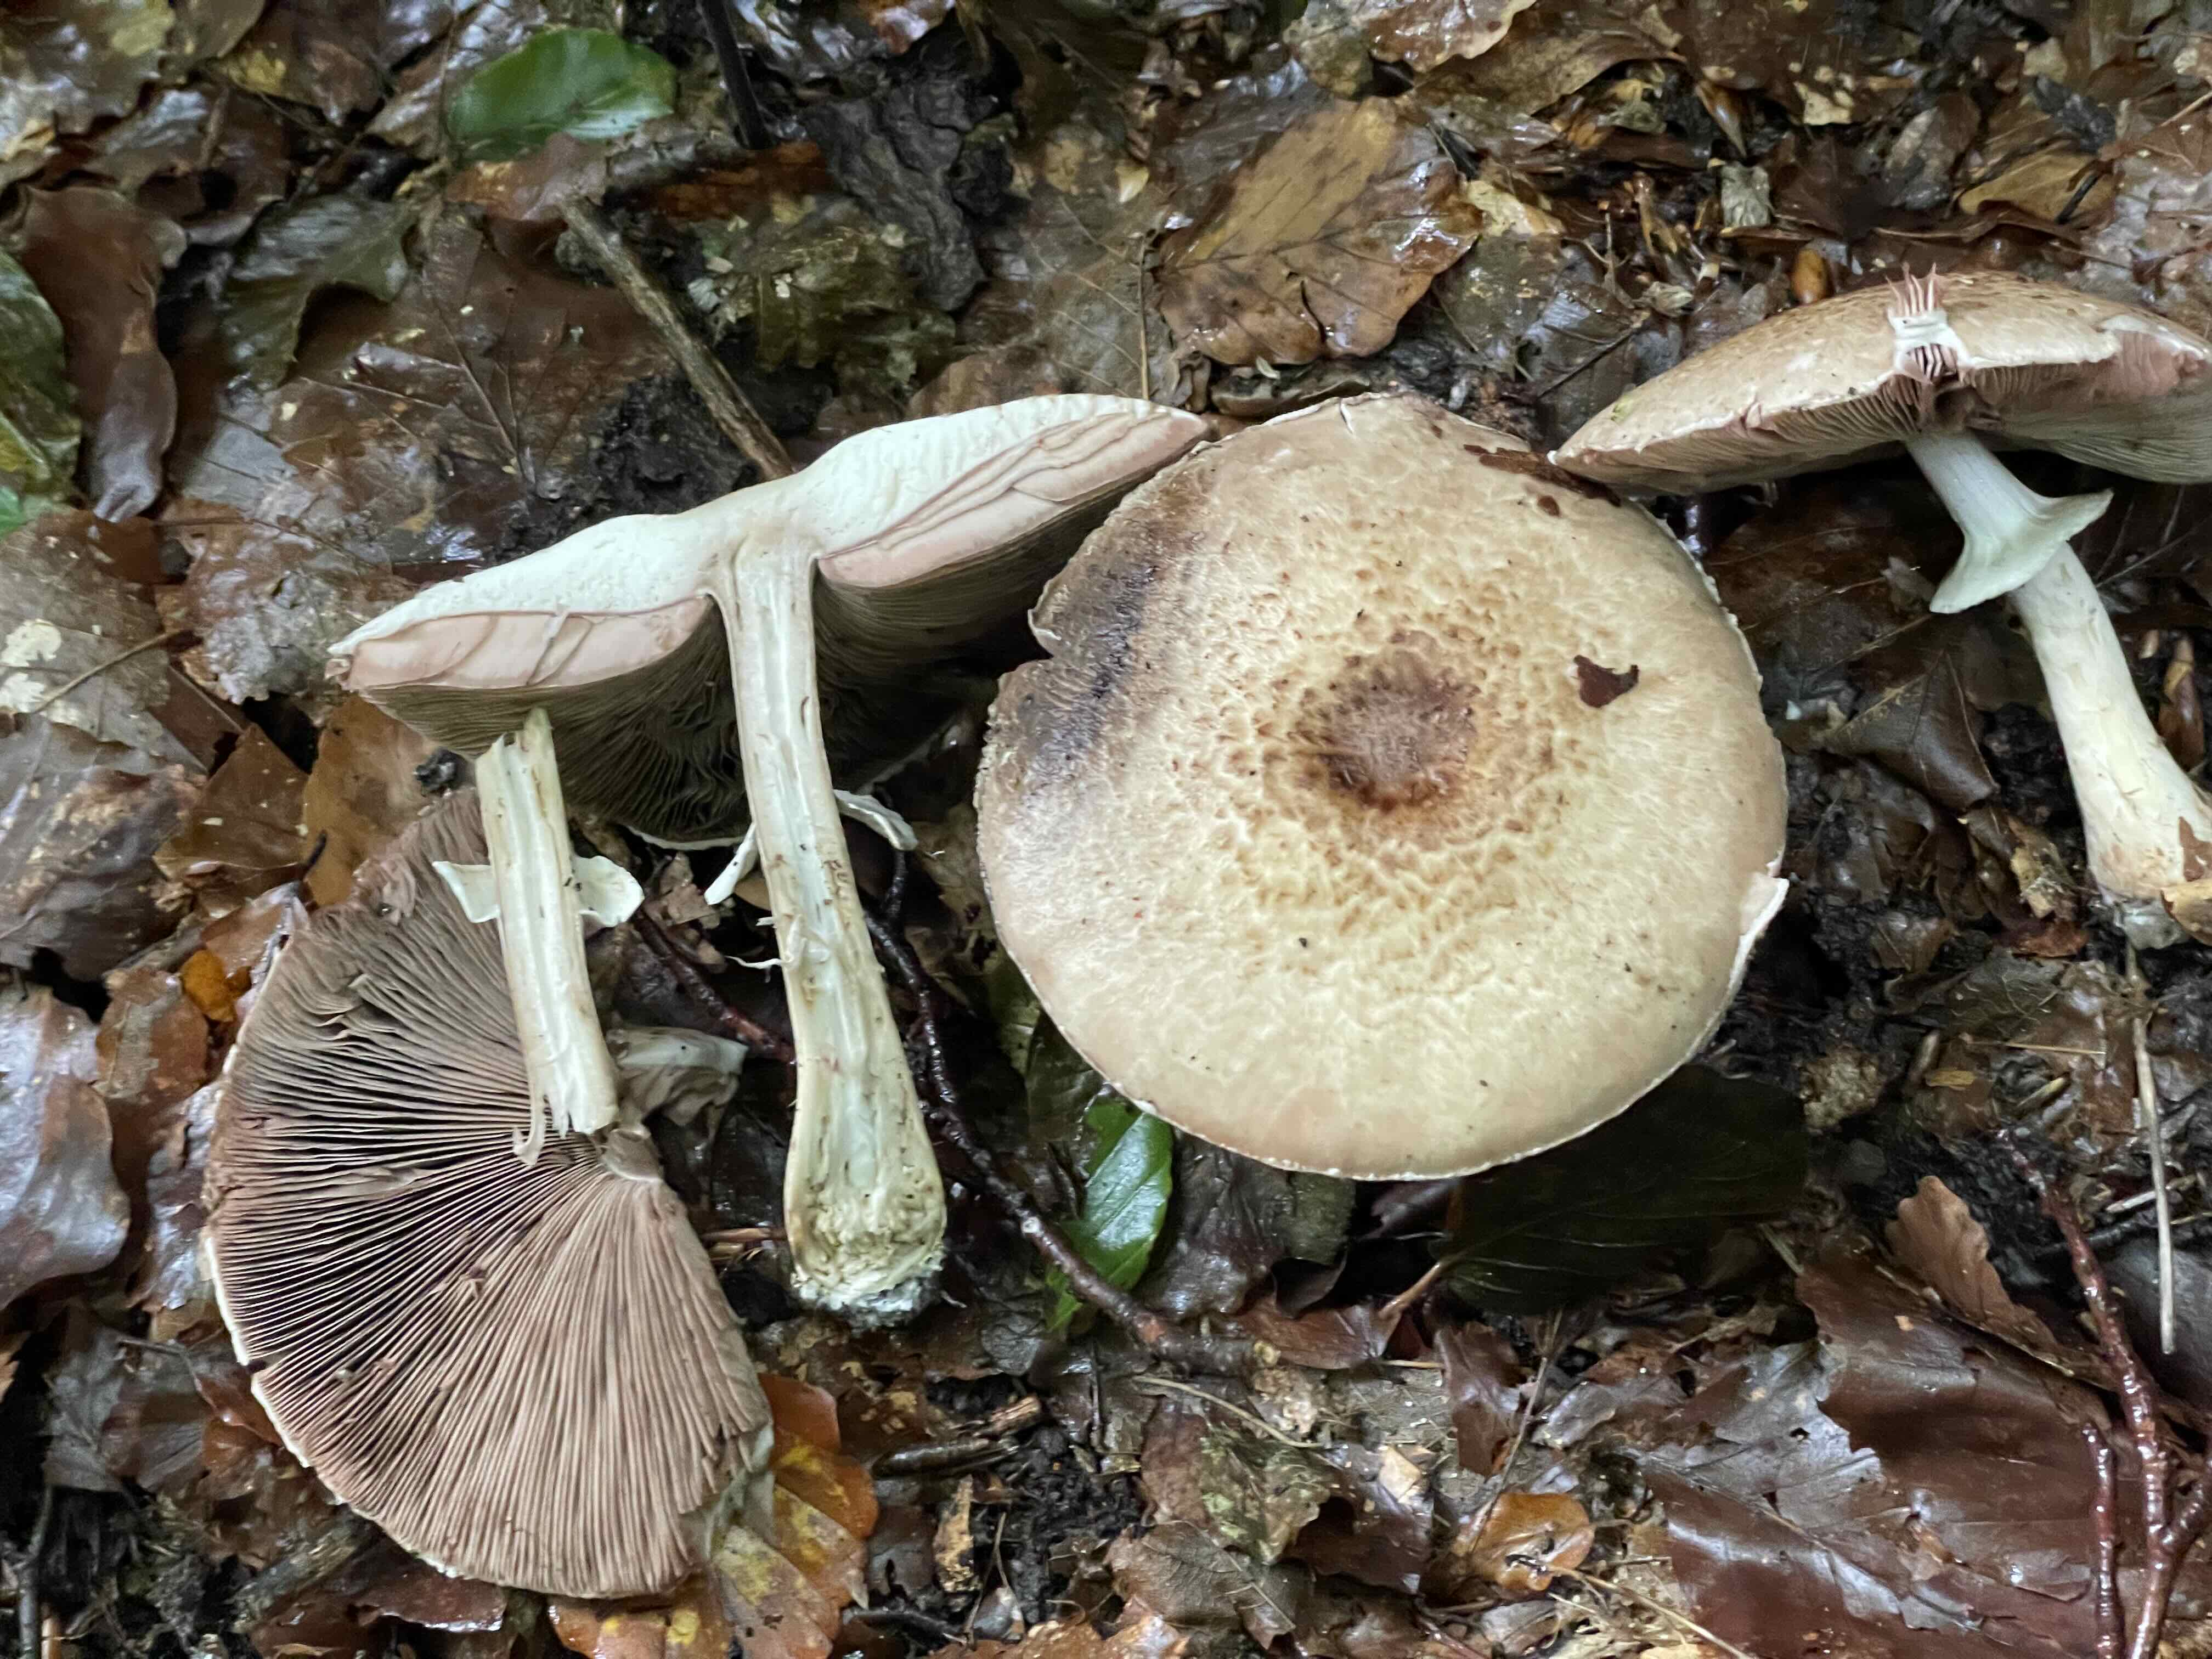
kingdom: Fungi
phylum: Basidiomycota
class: Agaricomycetes
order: Agaricales
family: Agaricaceae
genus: Agaricus
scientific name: Agaricus impudicus
